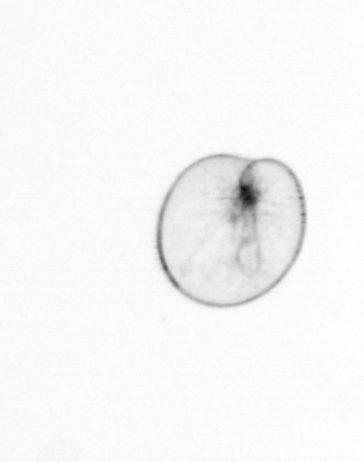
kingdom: Chromista
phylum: Myzozoa
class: Dinophyceae
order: Noctilucales
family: Noctilucaceae
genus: Noctiluca
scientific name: Noctiluca scintillans
